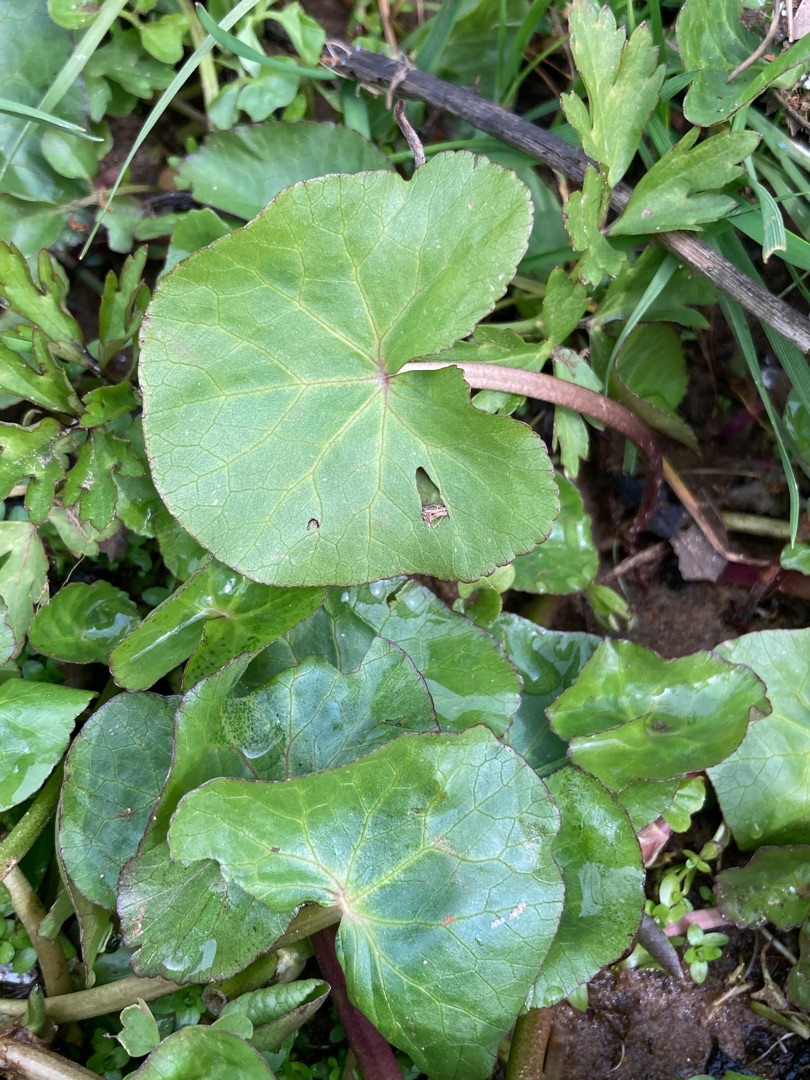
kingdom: Plantae
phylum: Tracheophyta
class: Magnoliopsida
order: Ranunculales
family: Ranunculaceae
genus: Caltha
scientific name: Caltha palustris
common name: Eng-kabbeleje
